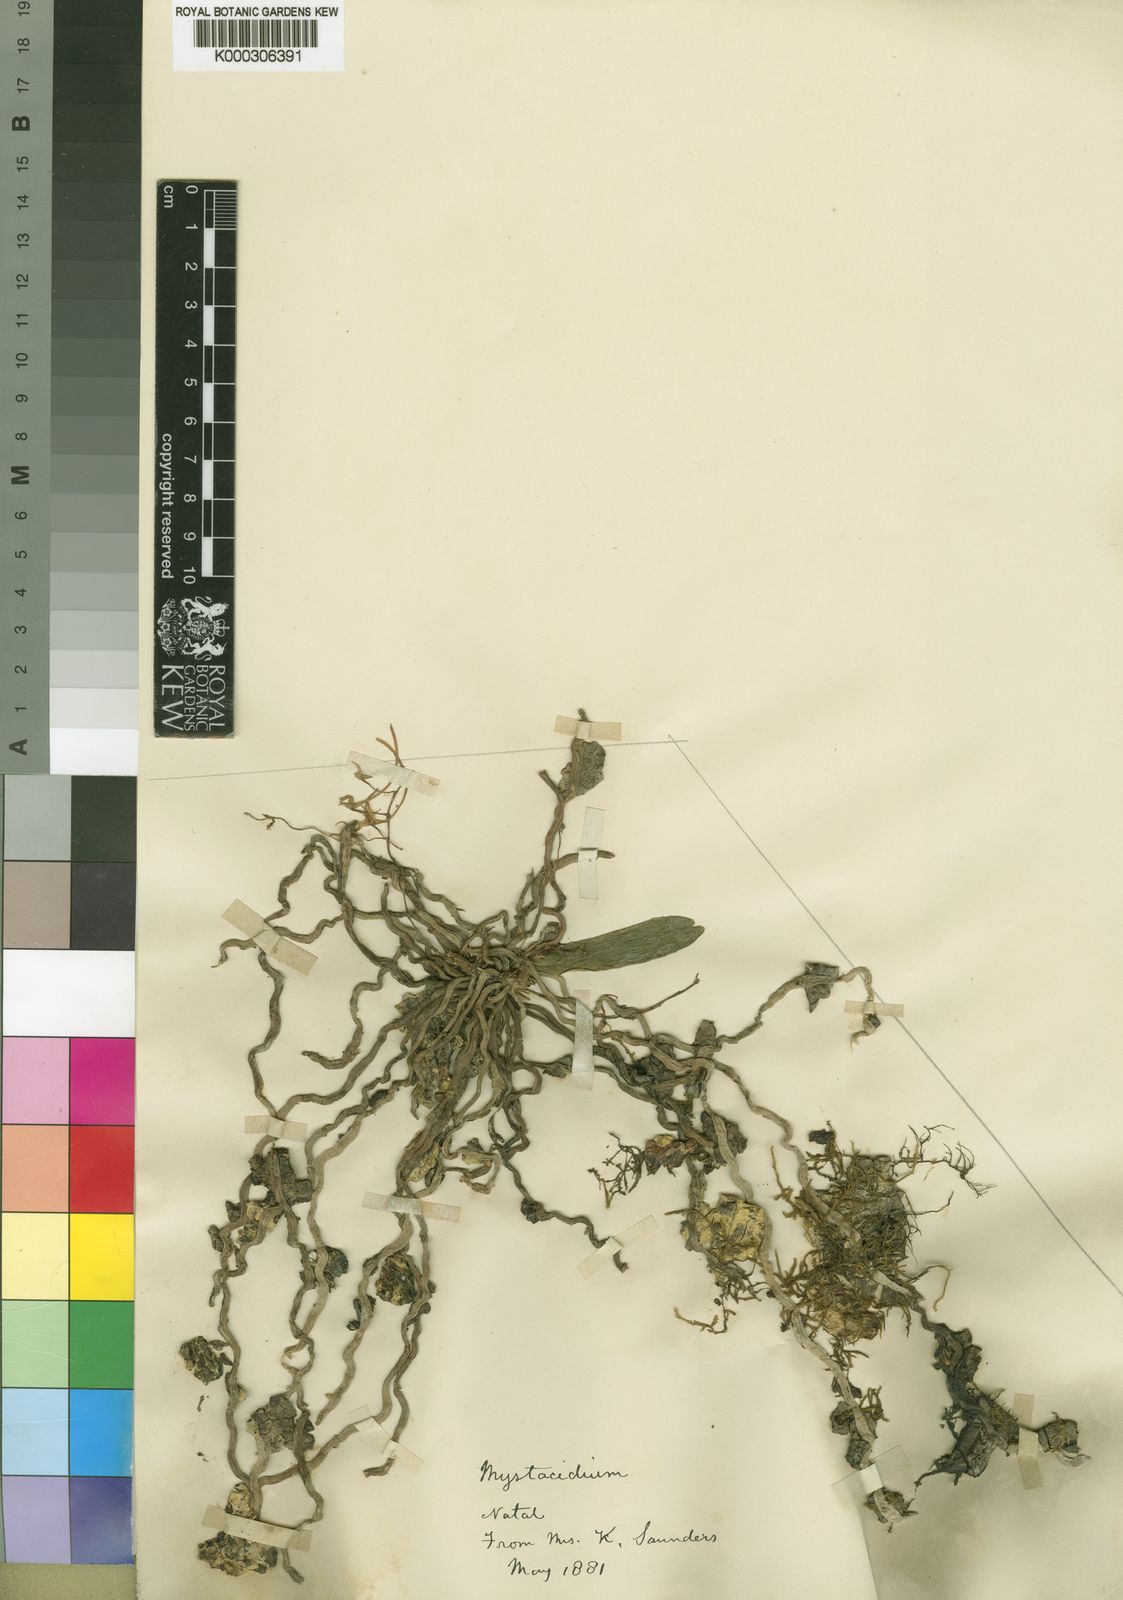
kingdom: Plantae
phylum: Tracheophyta
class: Liliopsida
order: Asparagales
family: Orchidaceae
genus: Mystacidium
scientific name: Mystacidium venosum
